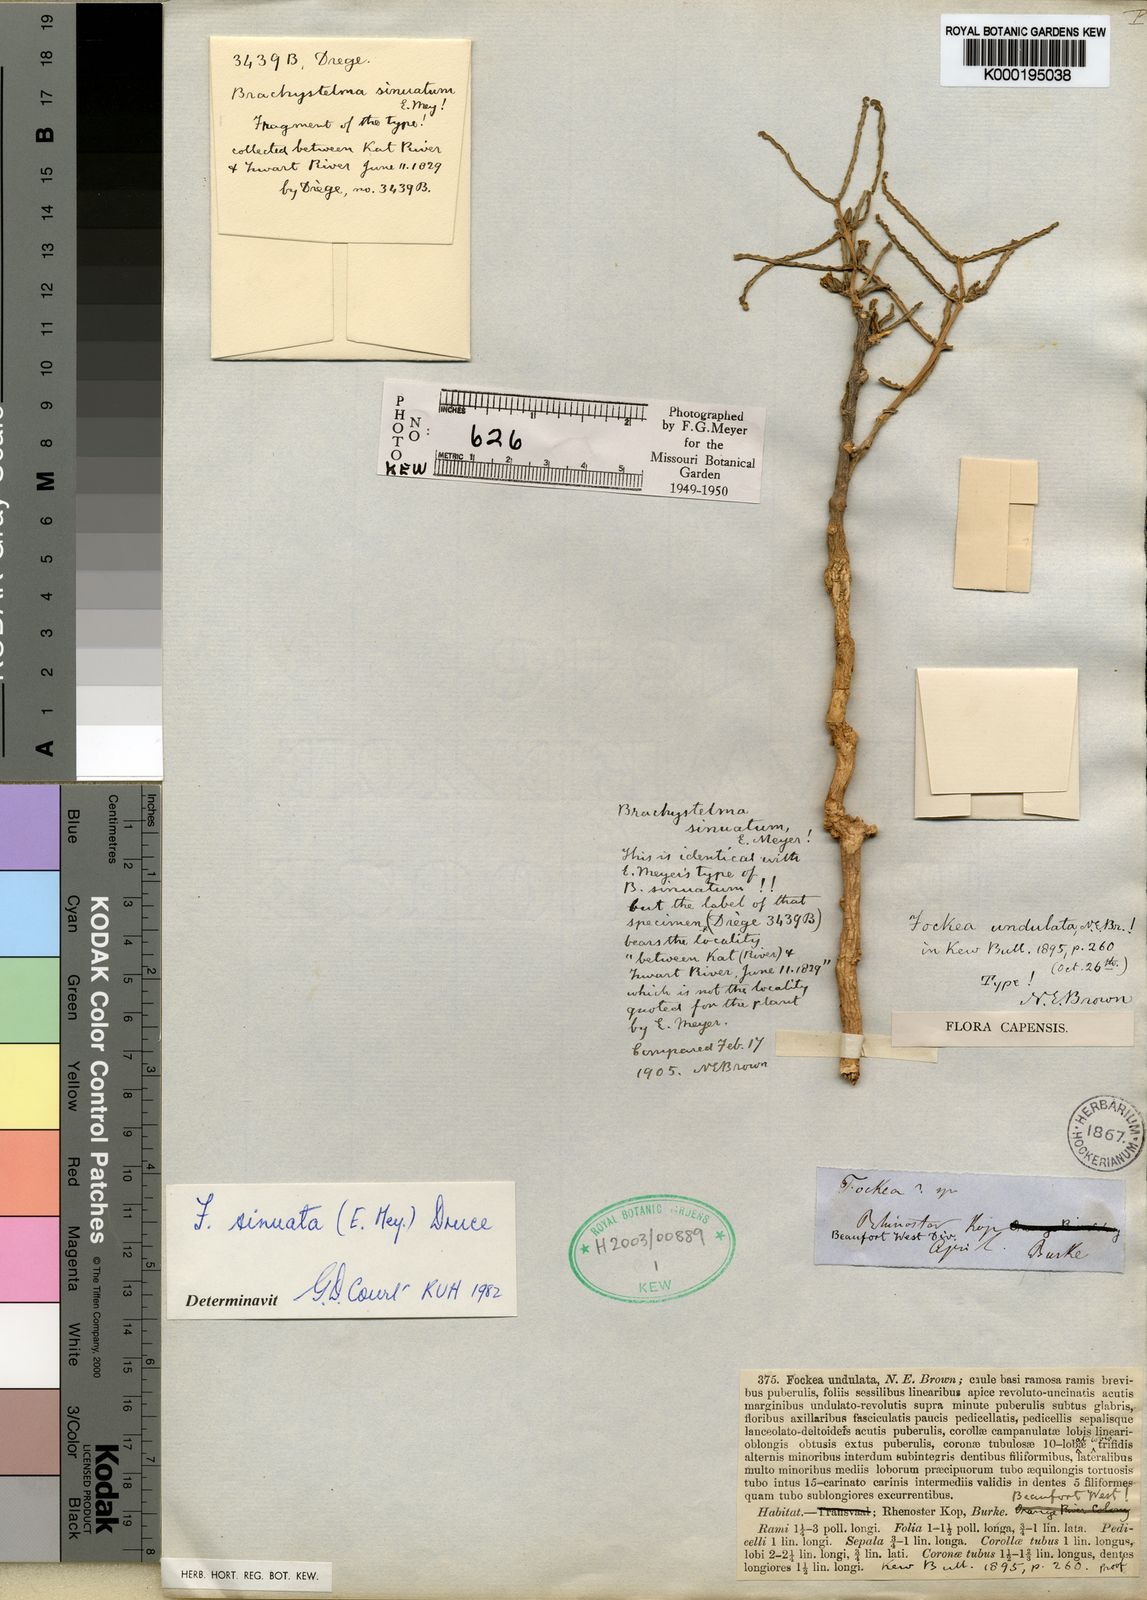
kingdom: Plantae
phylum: Tracheophyta
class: Magnoliopsida
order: Gentianales
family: Apocynaceae
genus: Fockea
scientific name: Fockea sinuata
